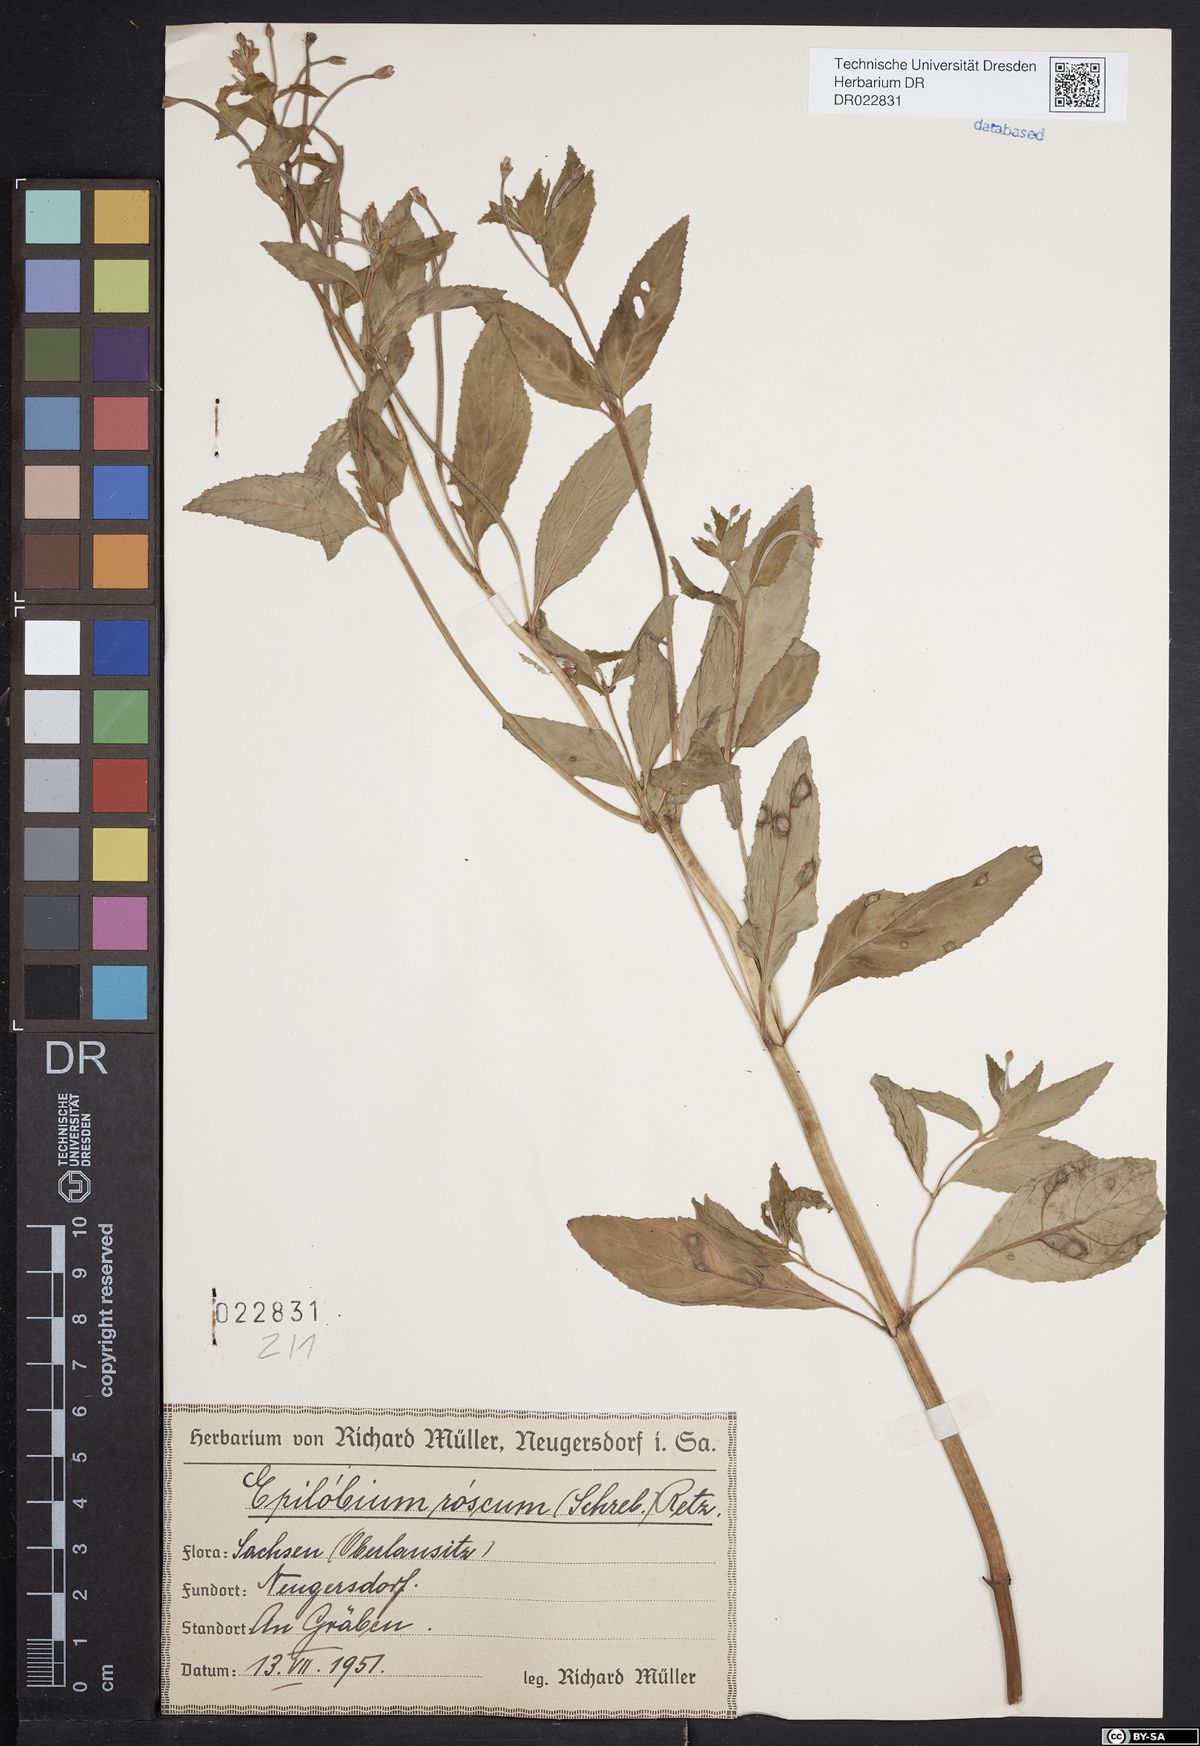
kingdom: Plantae
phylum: Tracheophyta
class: Magnoliopsida
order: Myrtales
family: Onagraceae
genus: Epilobium
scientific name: Epilobium roseum
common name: Pale willowherb
